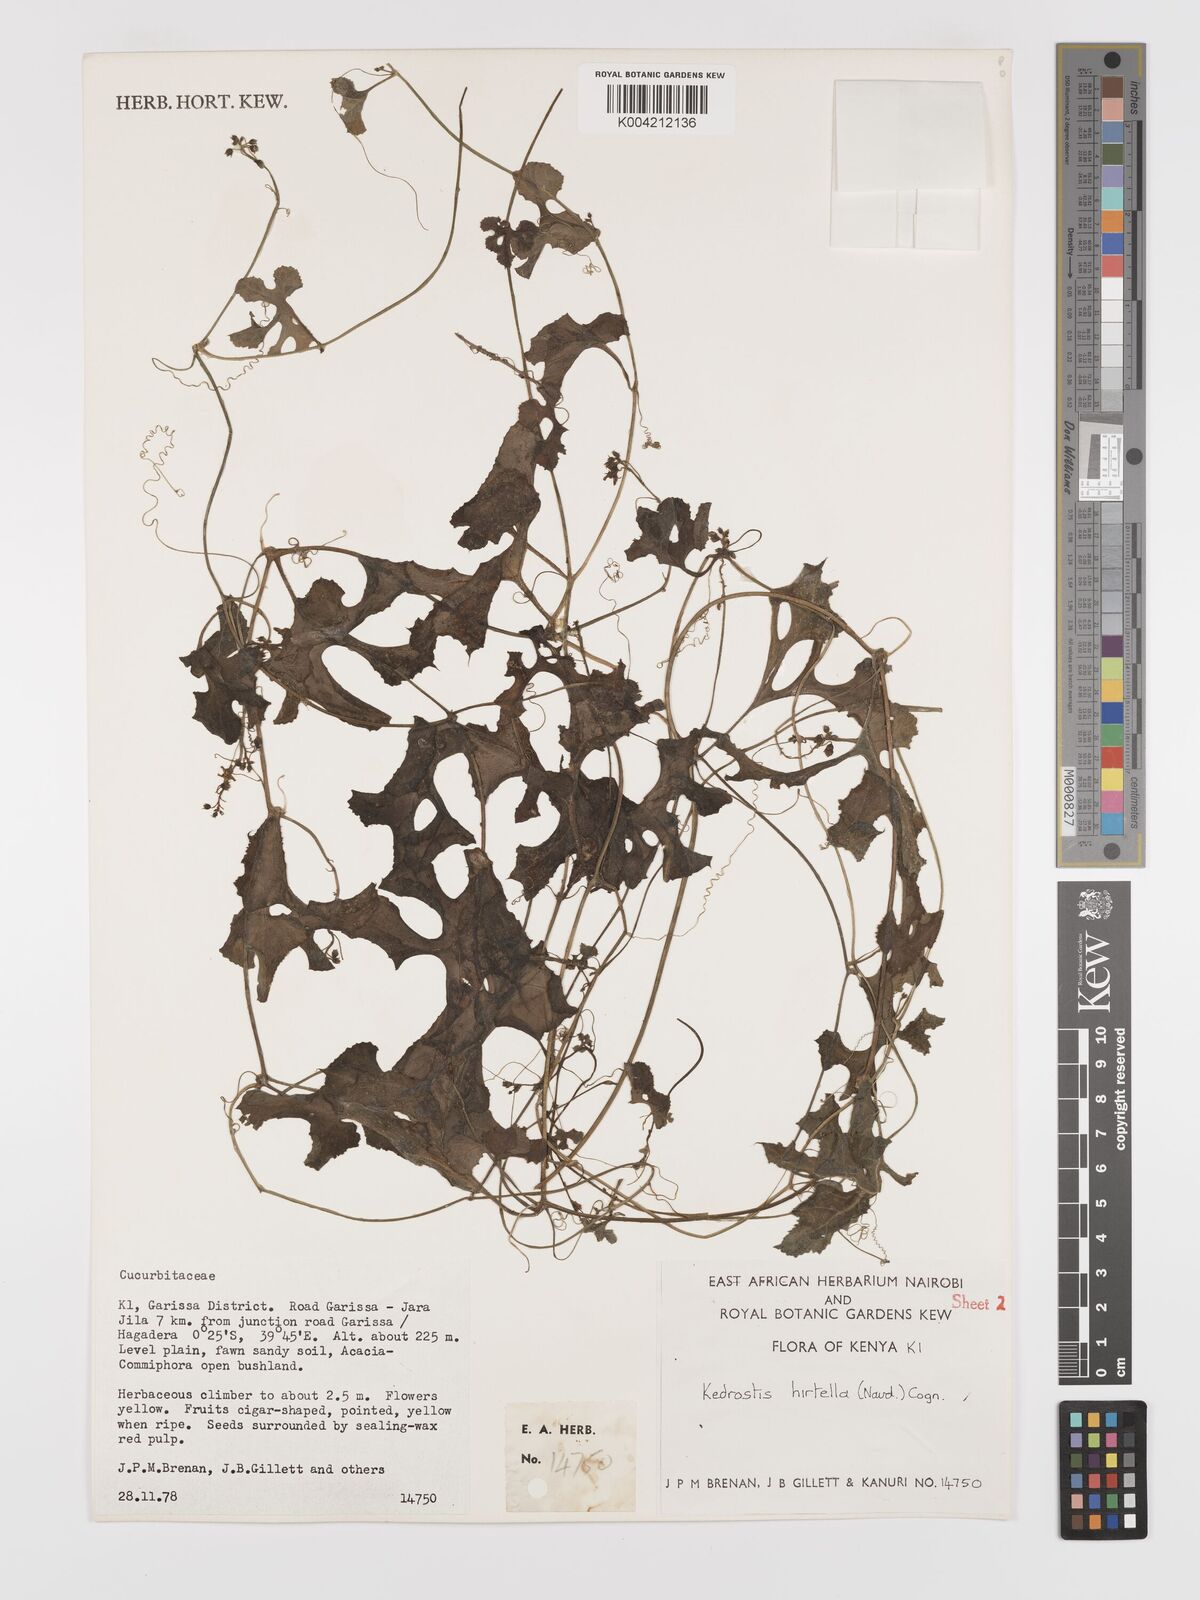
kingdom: Plantae
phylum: Tracheophyta
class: Magnoliopsida
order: Cucurbitales
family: Cucurbitaceae
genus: Kedrostis
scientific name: Kedrostis leloja
